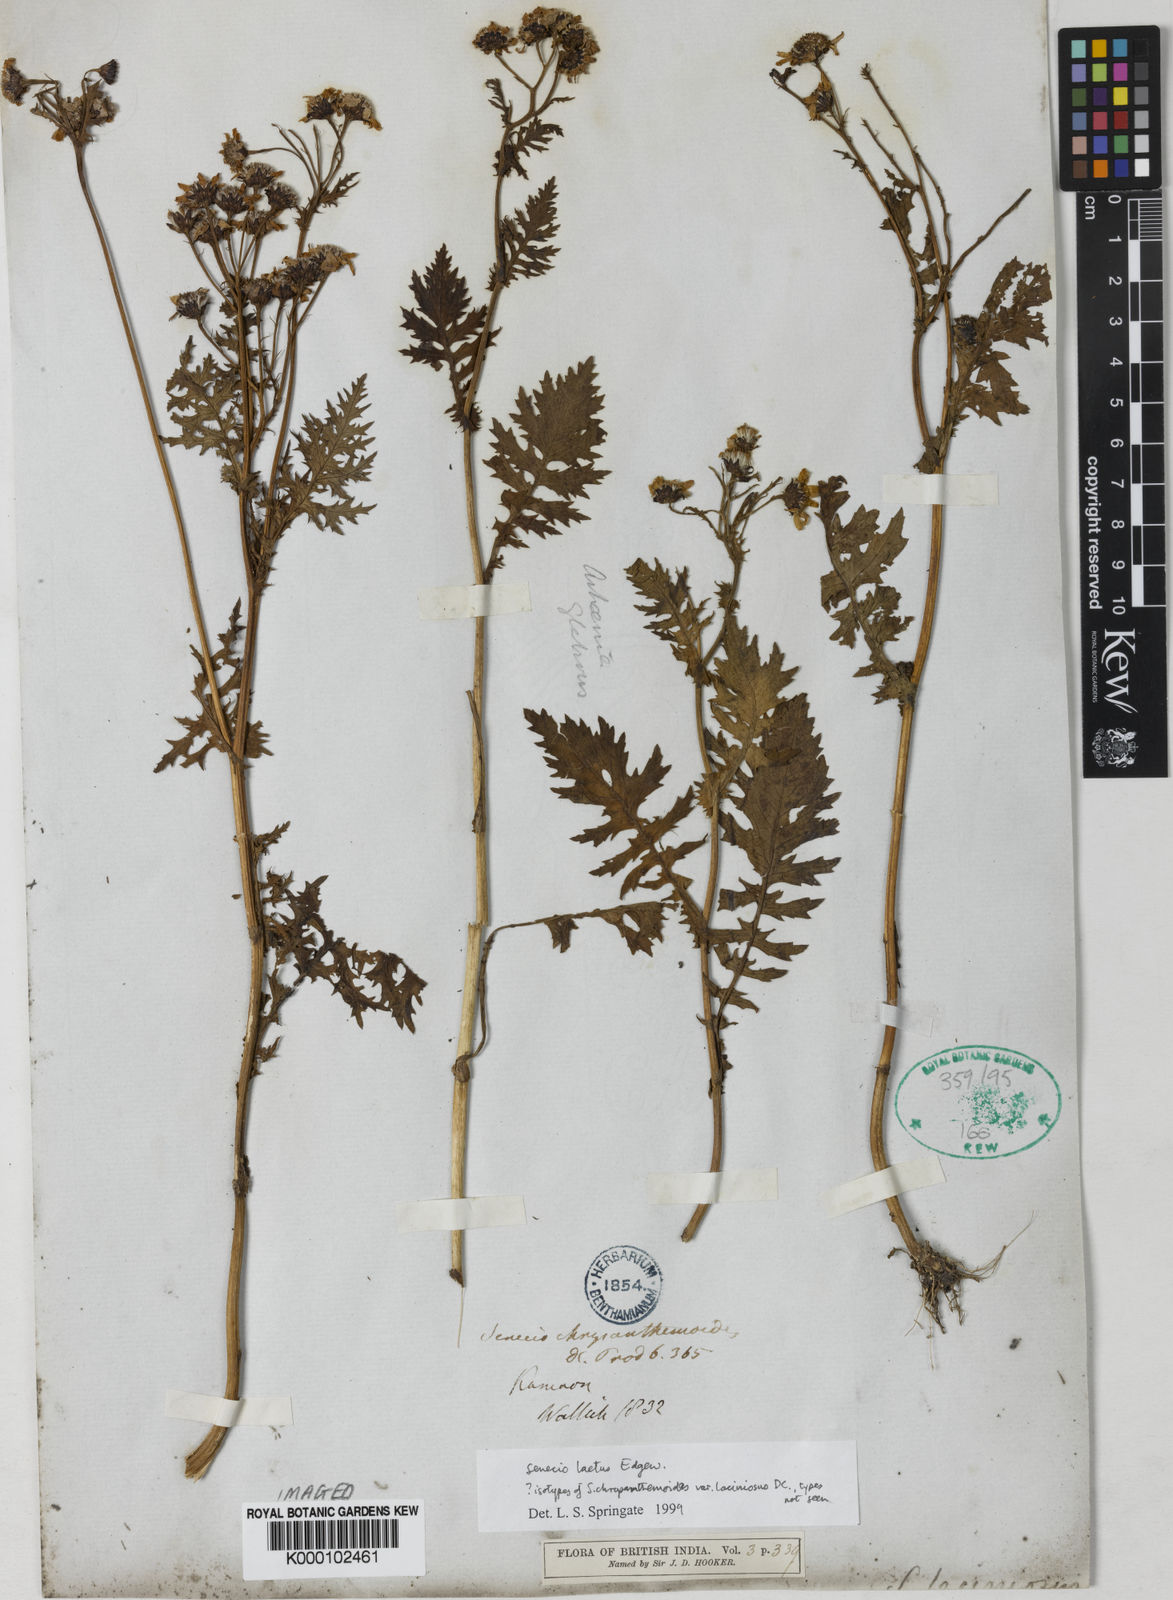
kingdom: Plantae
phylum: Tracheophyta
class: Magnoliopsida
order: Asterales
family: Asteraceae
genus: Jacobaea
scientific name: Jacobaea analoga
